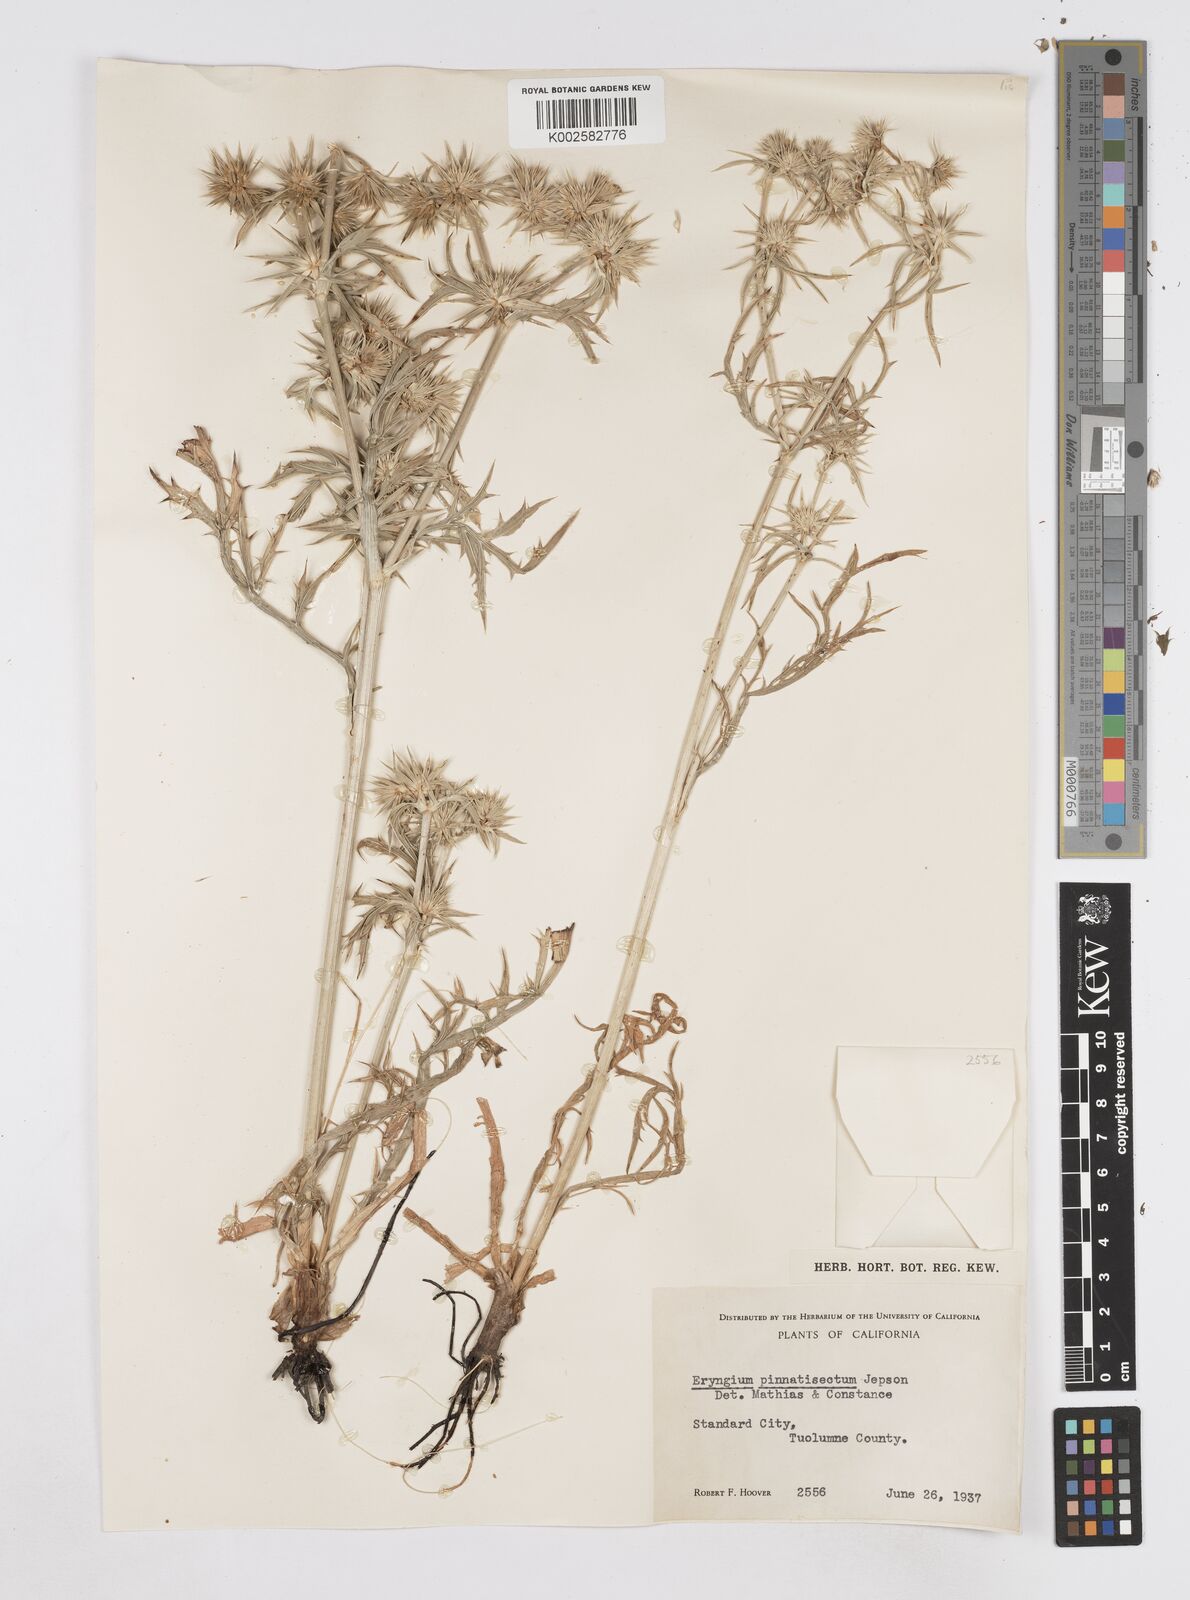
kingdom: Plantae
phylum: Tracheophyta
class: Magnoliopsida
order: Apiales
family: Apiaceae
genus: Eryngium
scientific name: Eryngium pinnatisectum
